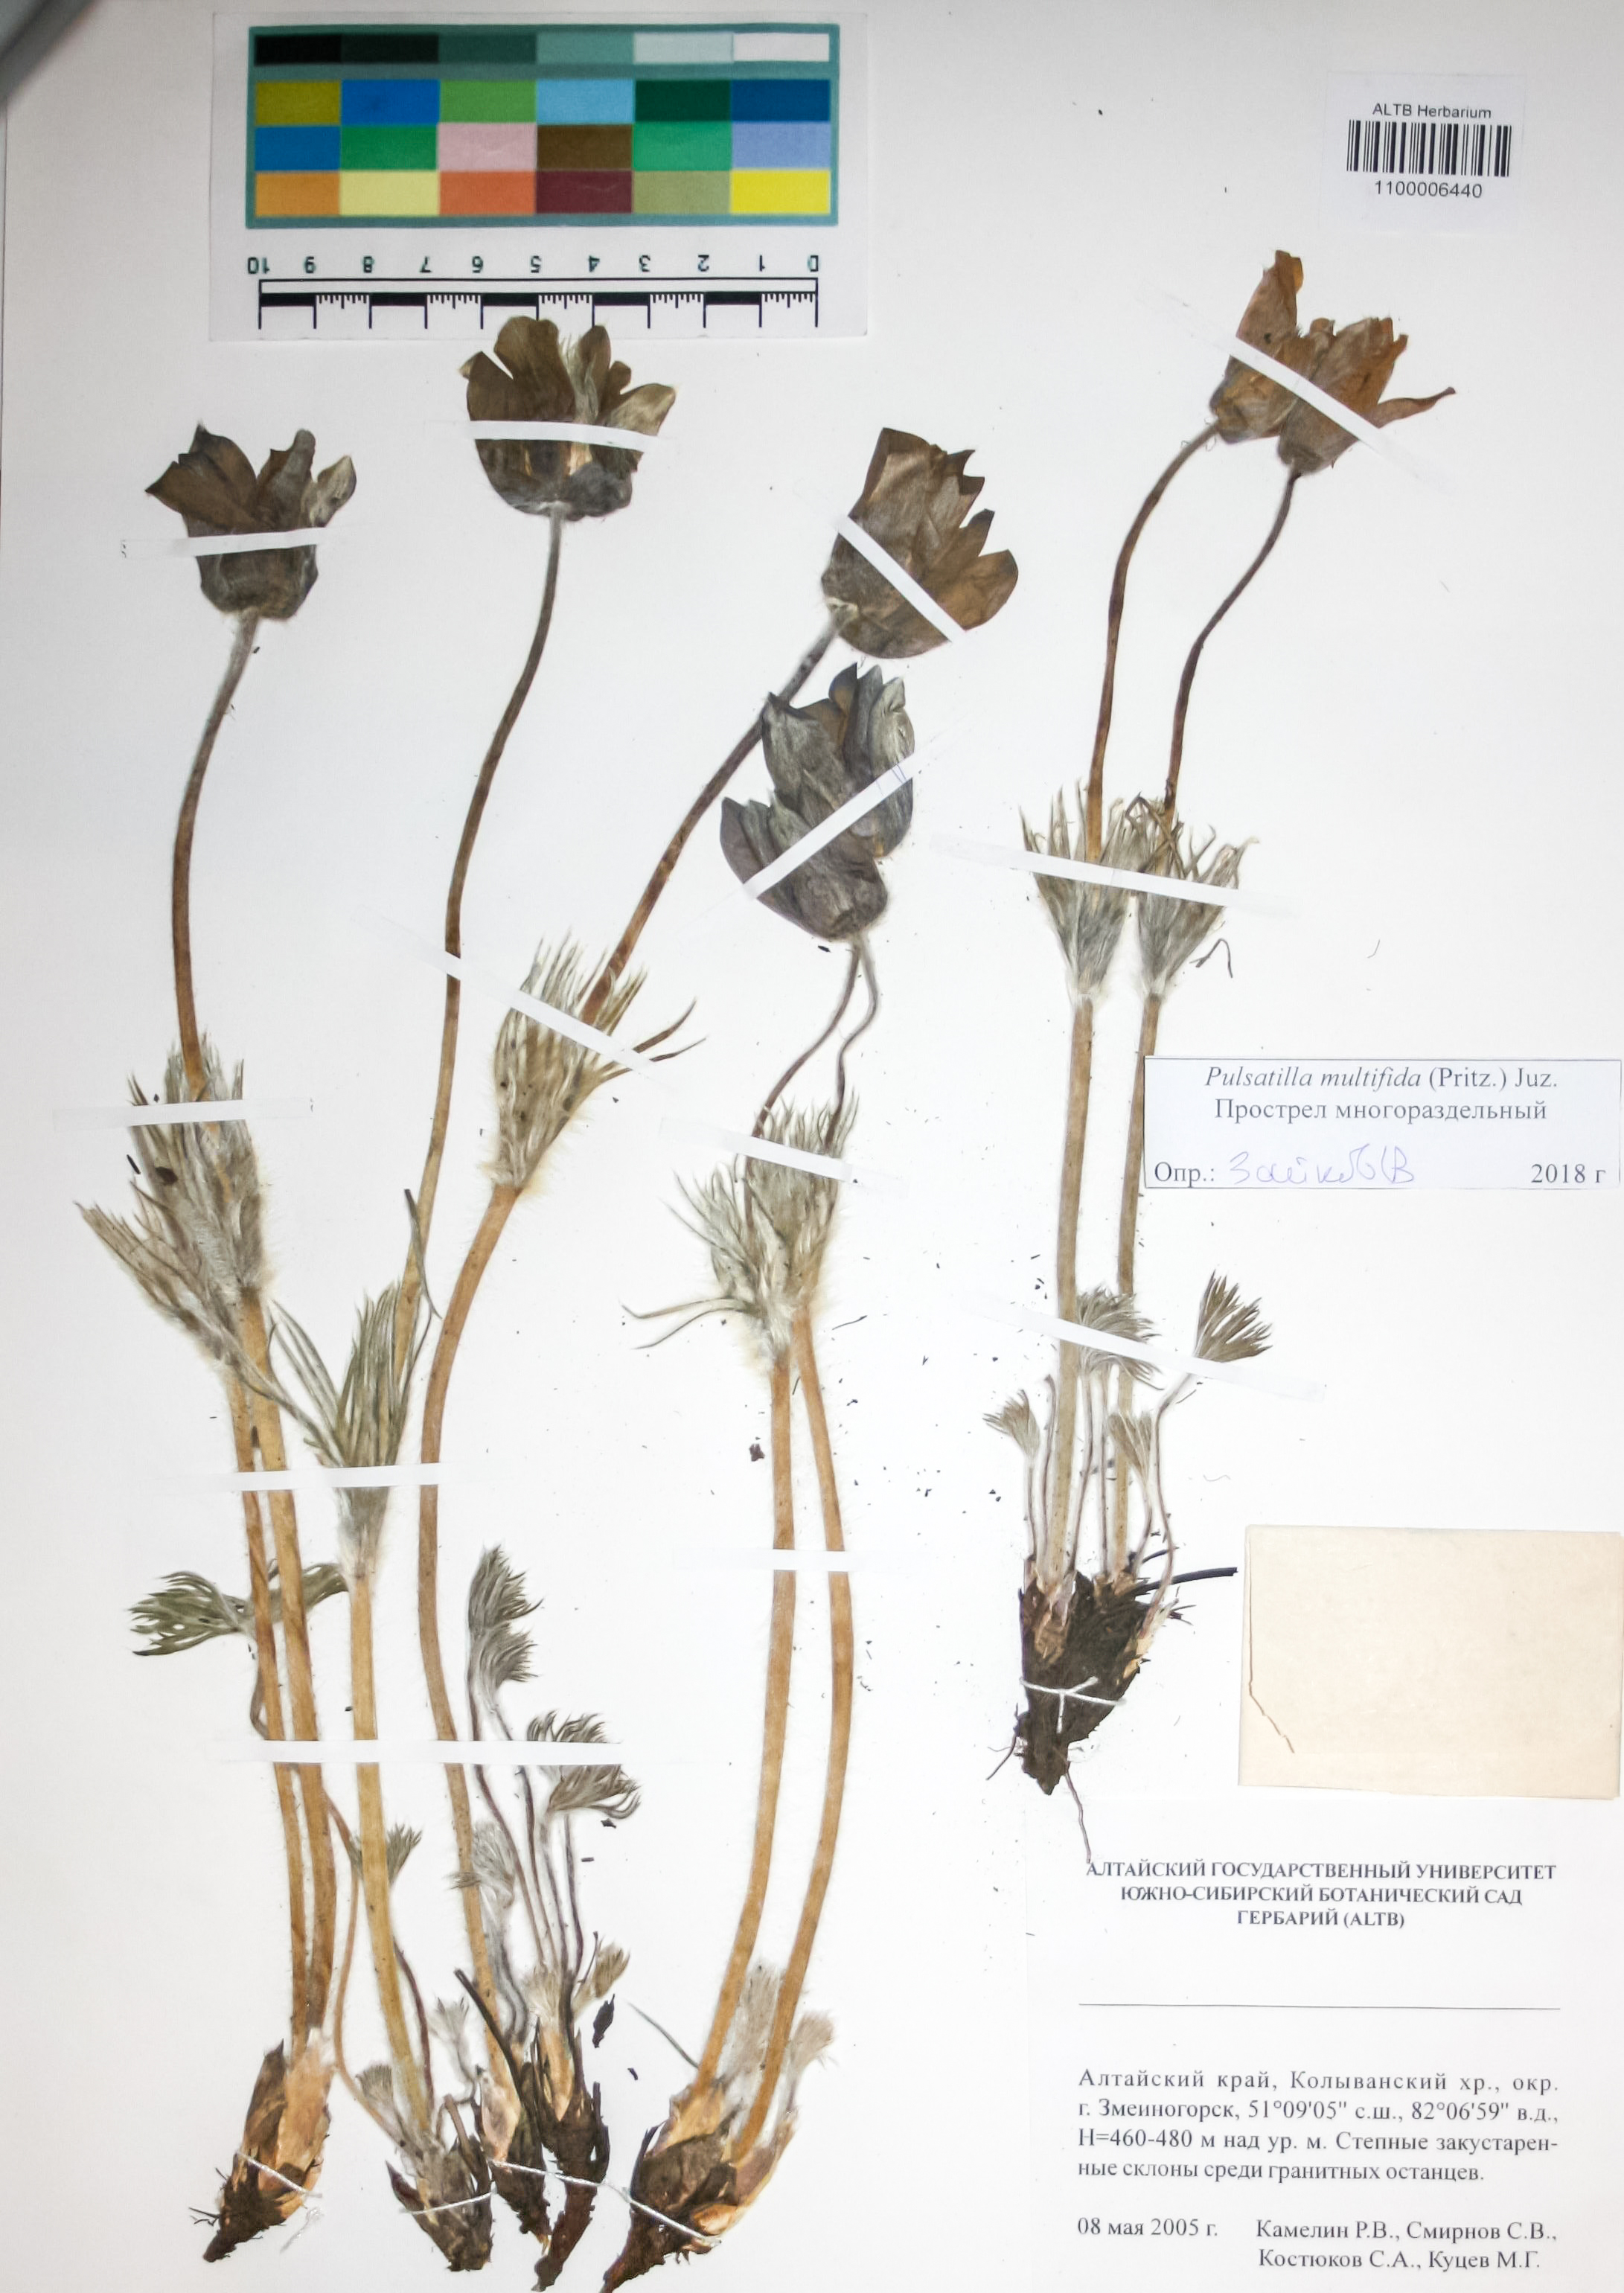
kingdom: Plantae
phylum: Tracheophyta
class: Magnoliopsida
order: Ranunculales
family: Ranunculaceae
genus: Pulsatilla
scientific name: Pulsatilla patens
